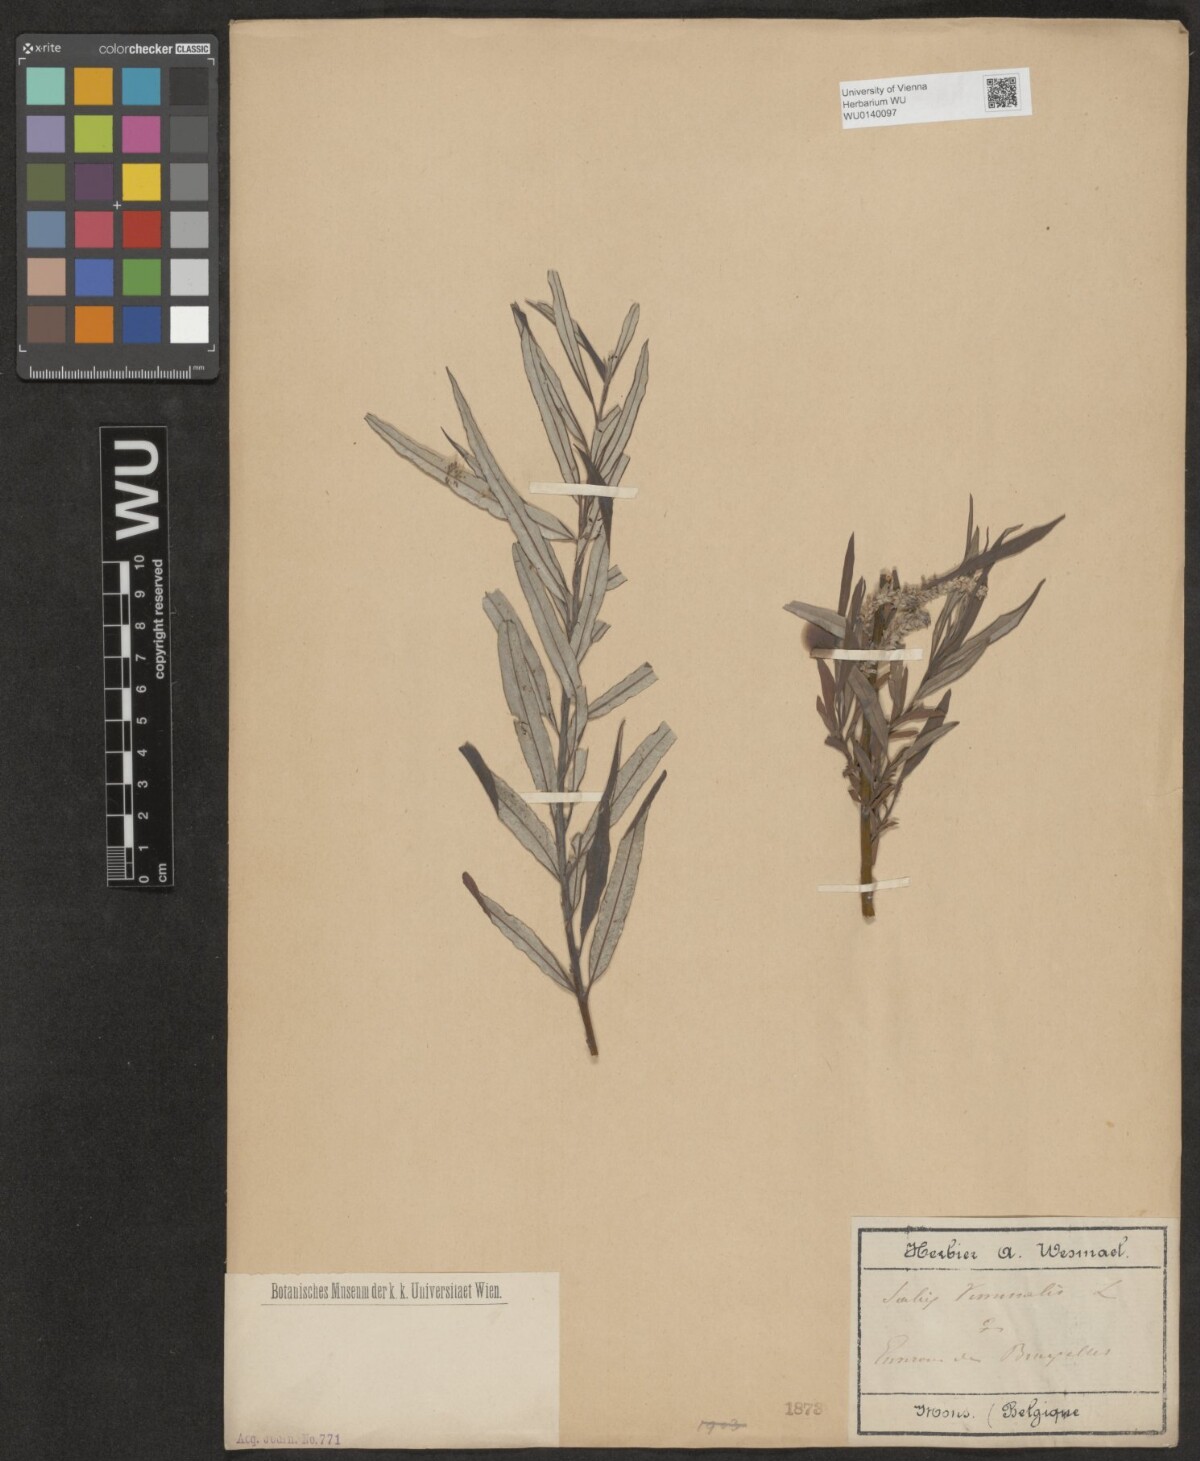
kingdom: Plantae
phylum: Tracheophyta
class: Magnoliopsida
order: Malpighiales
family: Salicaceae
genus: Salix
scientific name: Salix viminalis
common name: Osier
